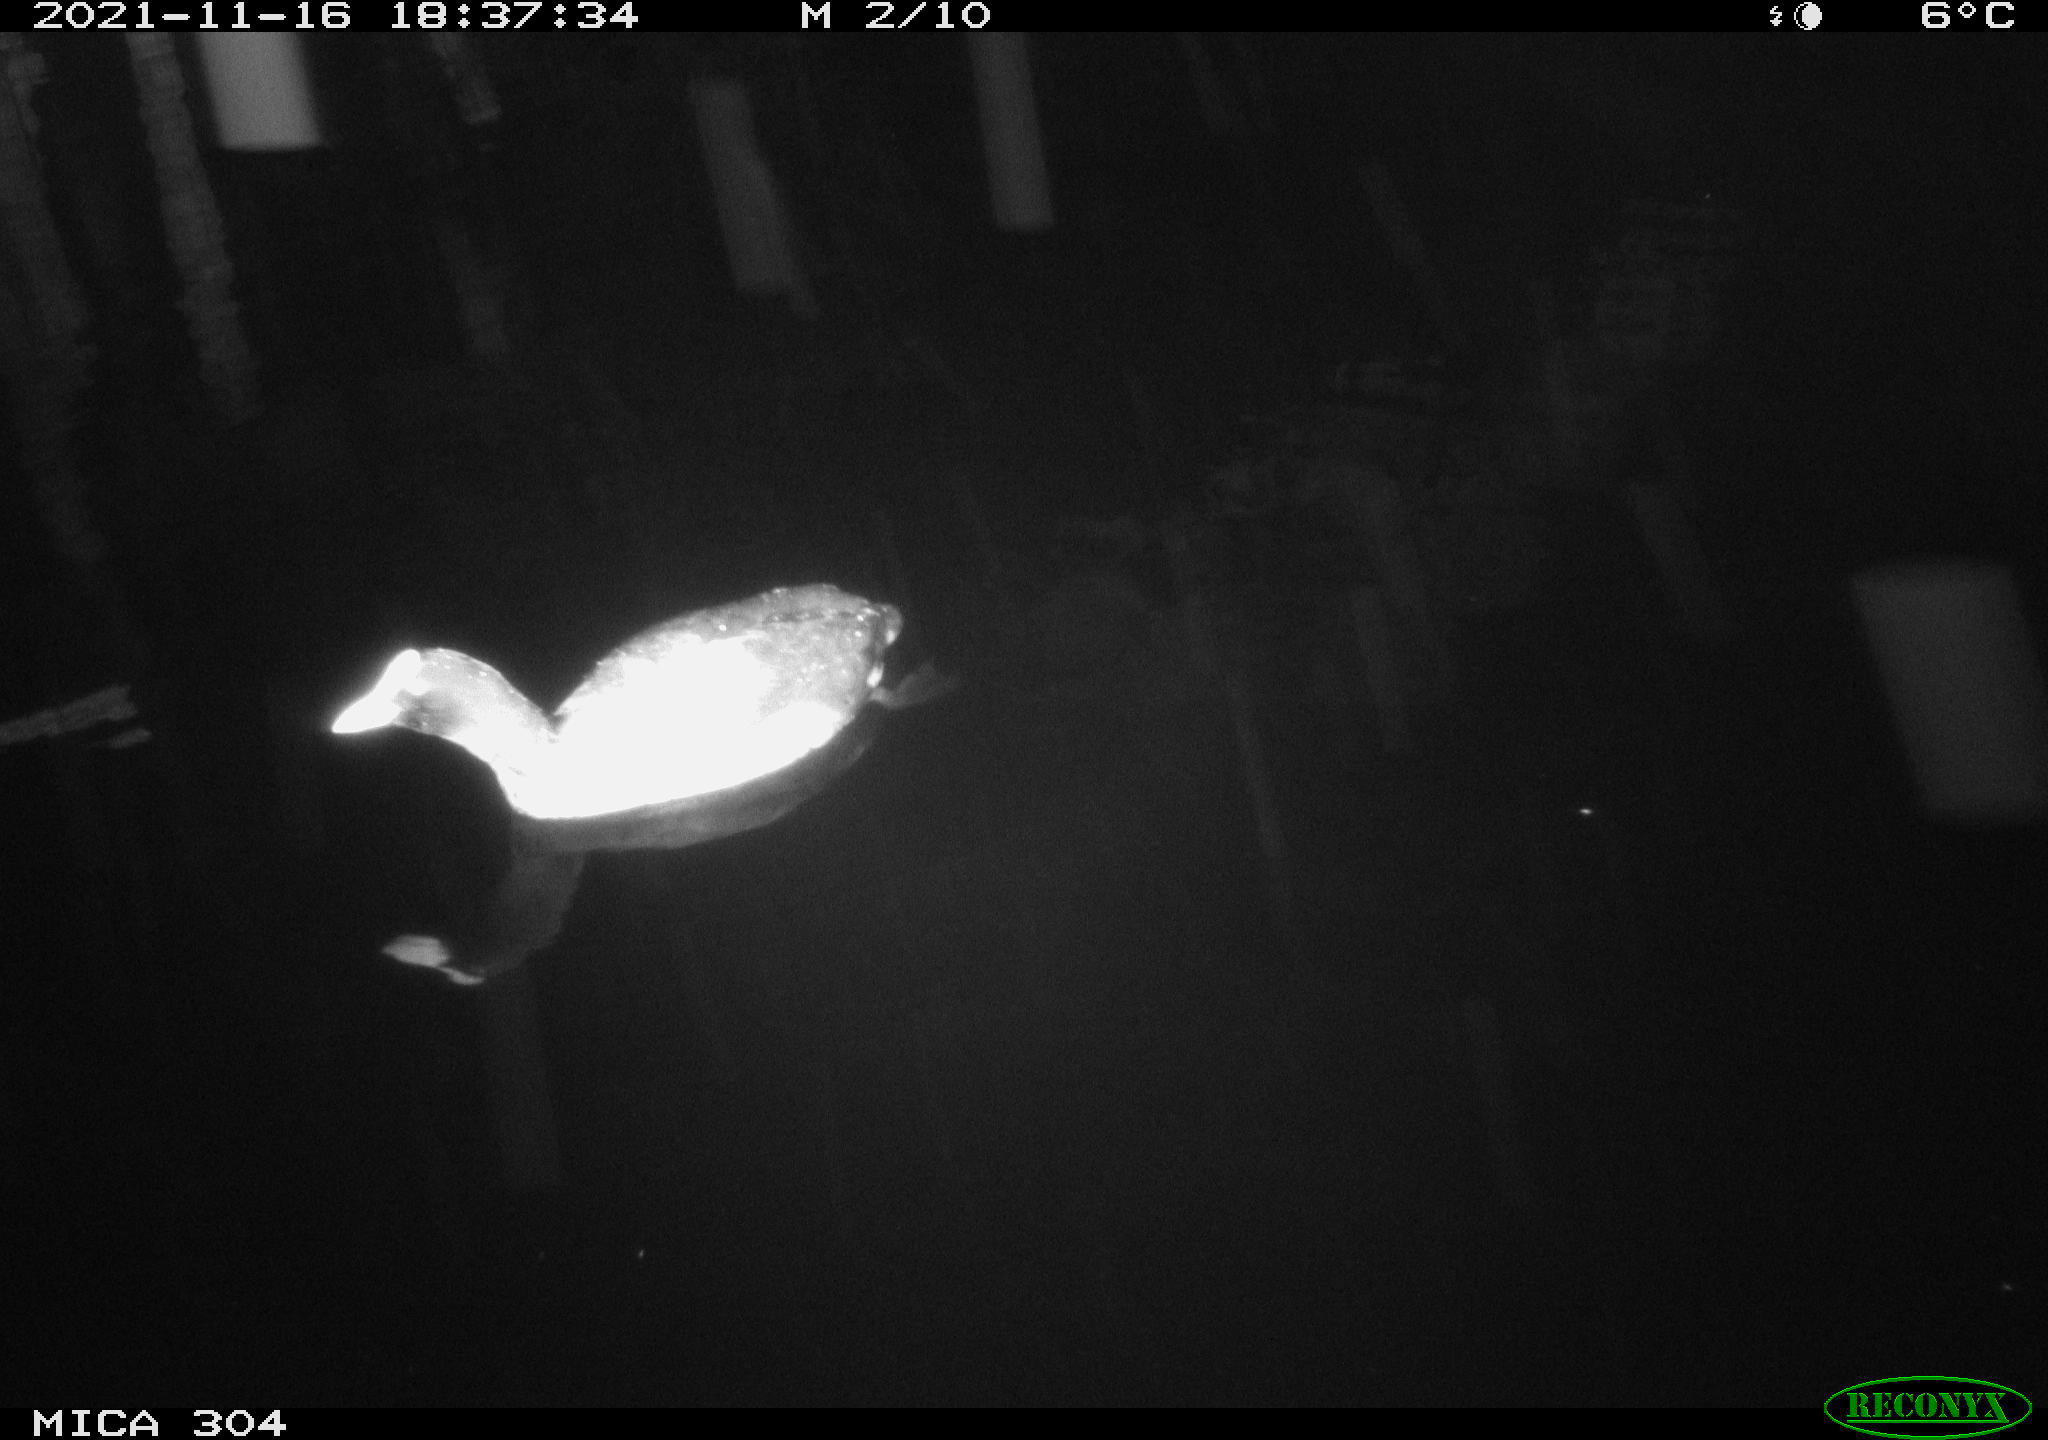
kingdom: Animalia
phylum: Chordata
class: Aves
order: Gruiformes
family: Rallidae
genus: Fulica
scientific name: Fulica atra
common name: Eurasian coot
